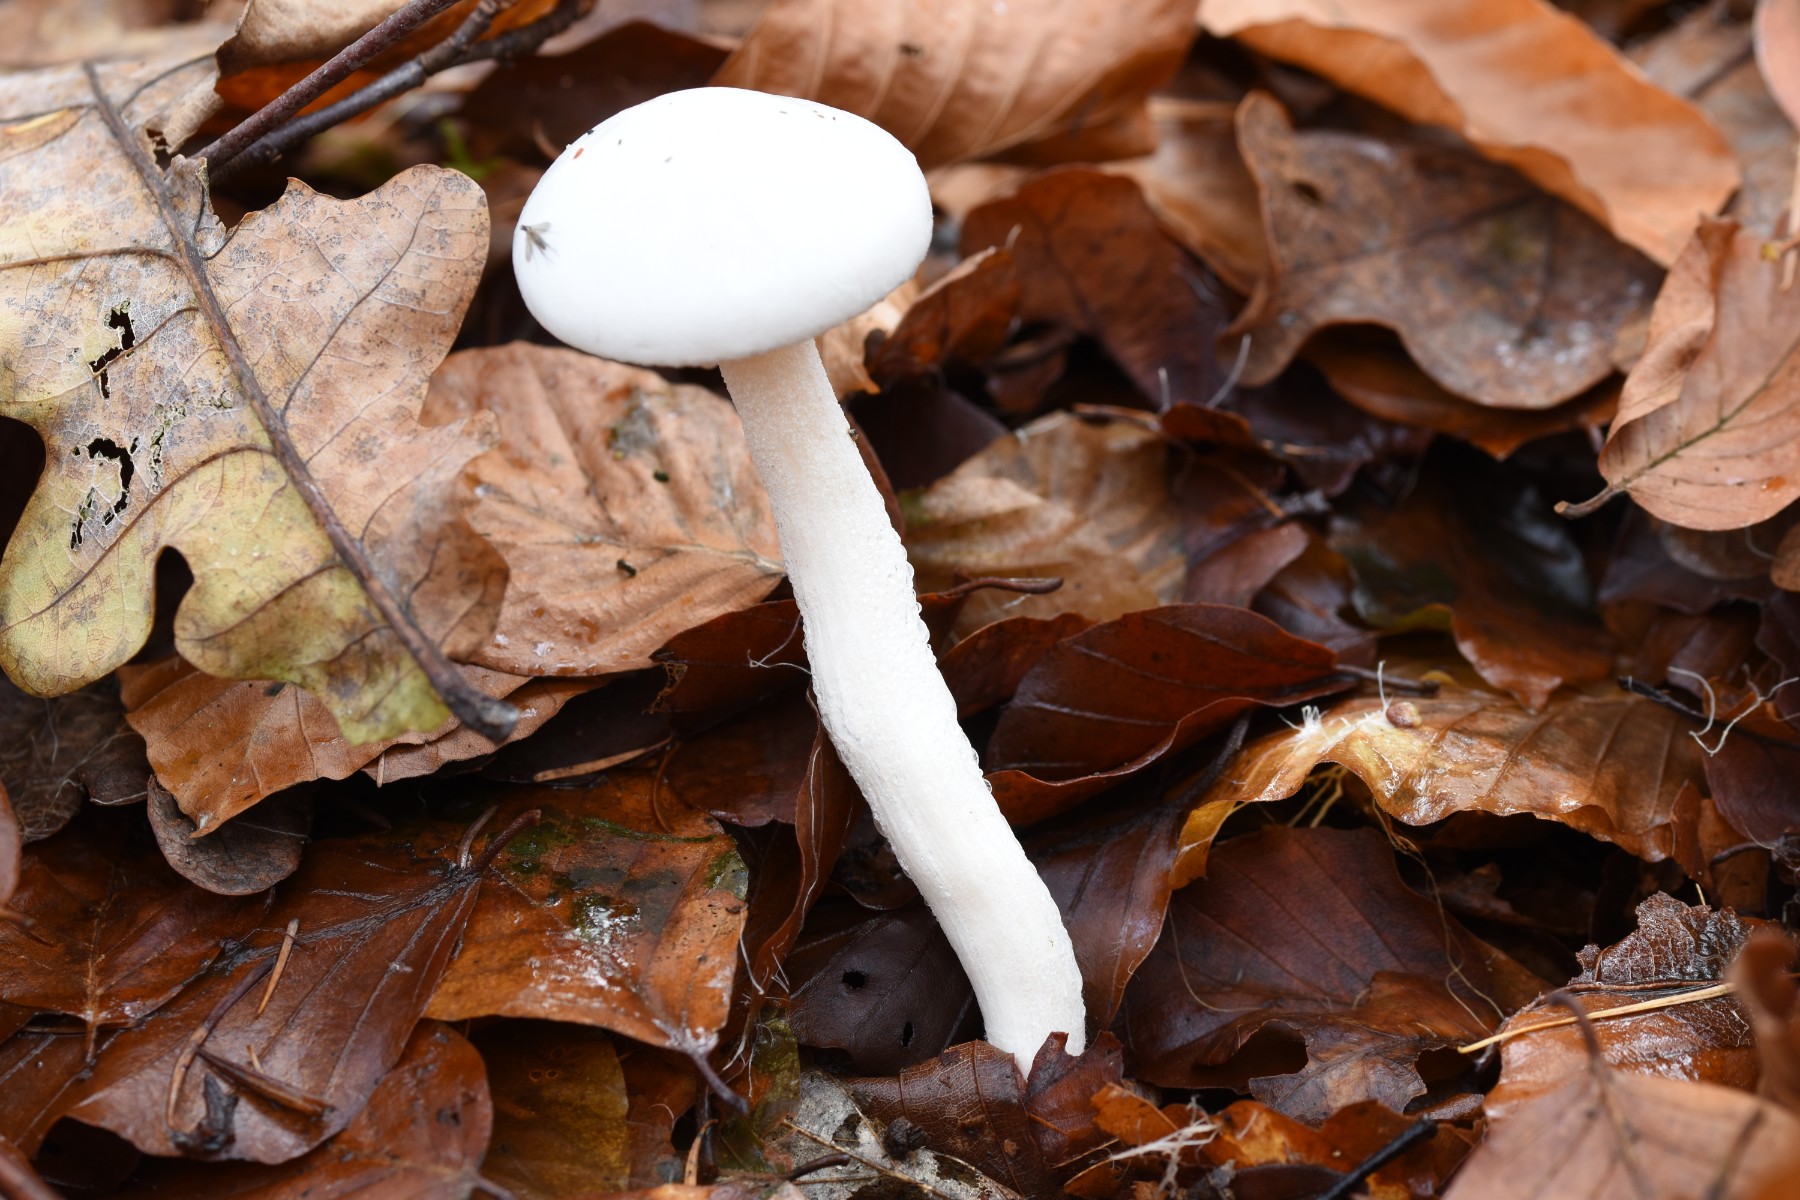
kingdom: Fungi
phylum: Basidiomycota
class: Agaricomycetes
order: Agaricales
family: Hygrophoraceae
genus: Hygrophorus
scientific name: Hygrophorus eburneus
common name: elfenbens-sneglehat
